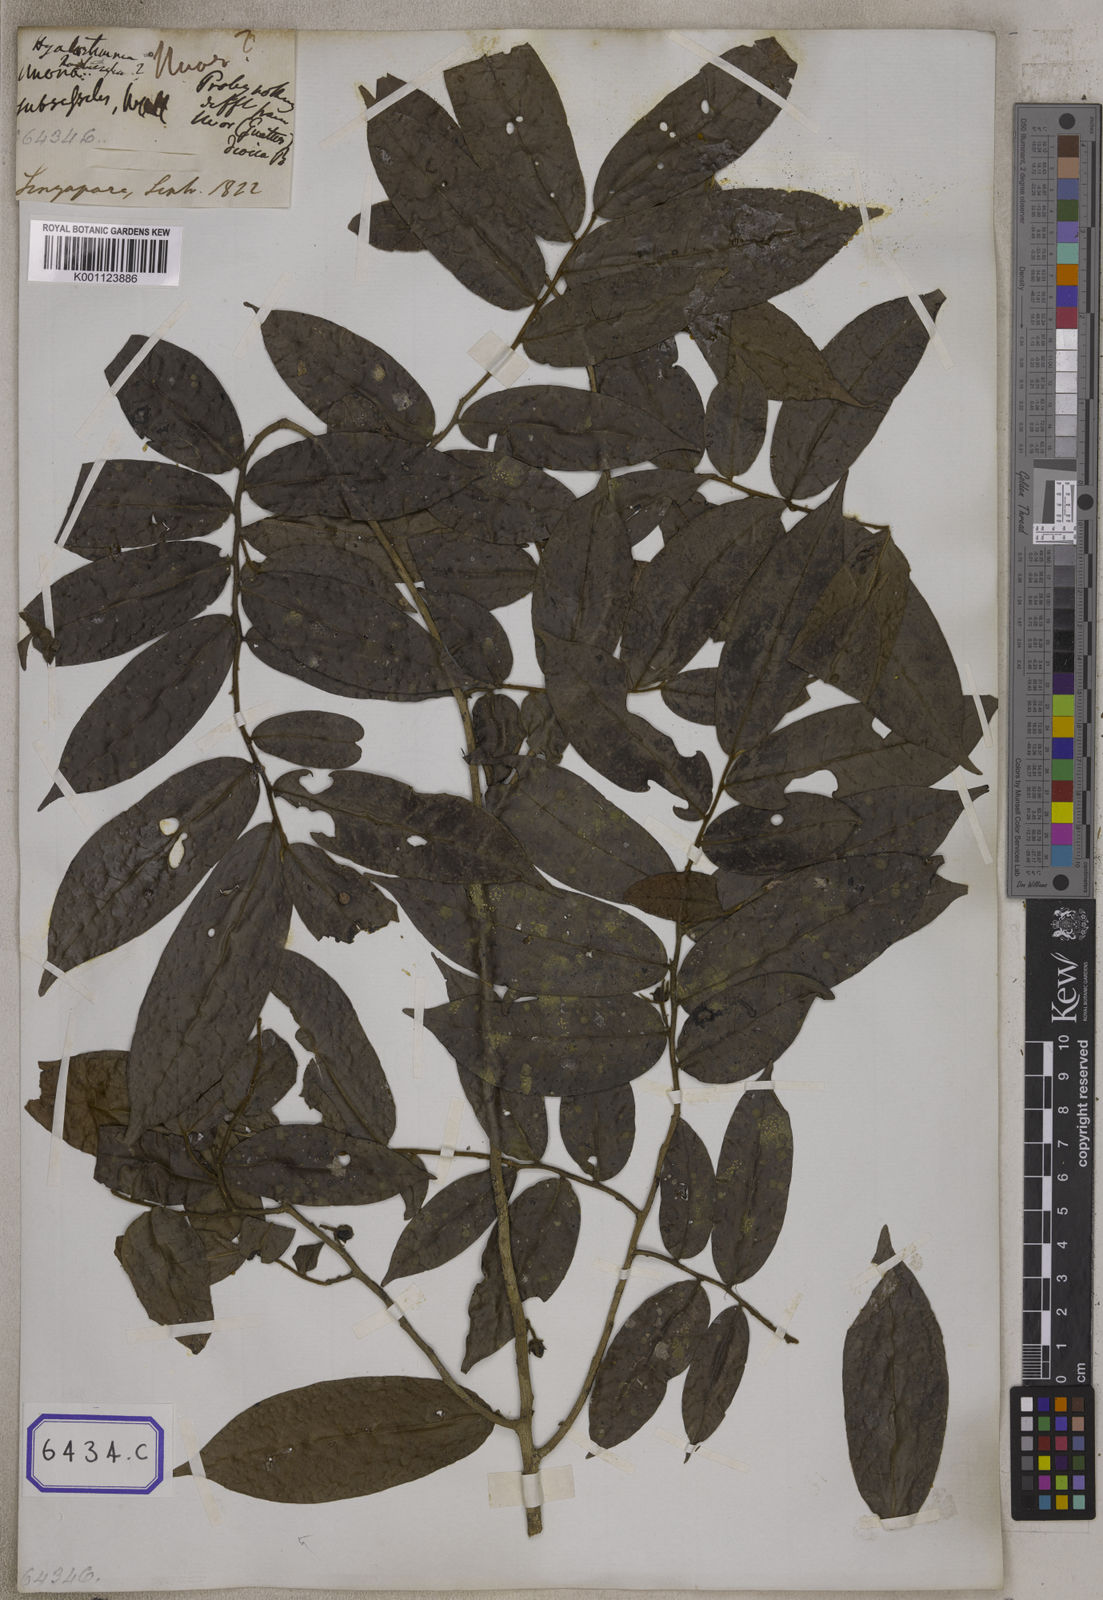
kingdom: Plantae
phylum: Tracheophyta
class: Magnoliopsida
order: Magnoliales
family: Annonaceae
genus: Hyalostemma
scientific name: Hyalostemma
